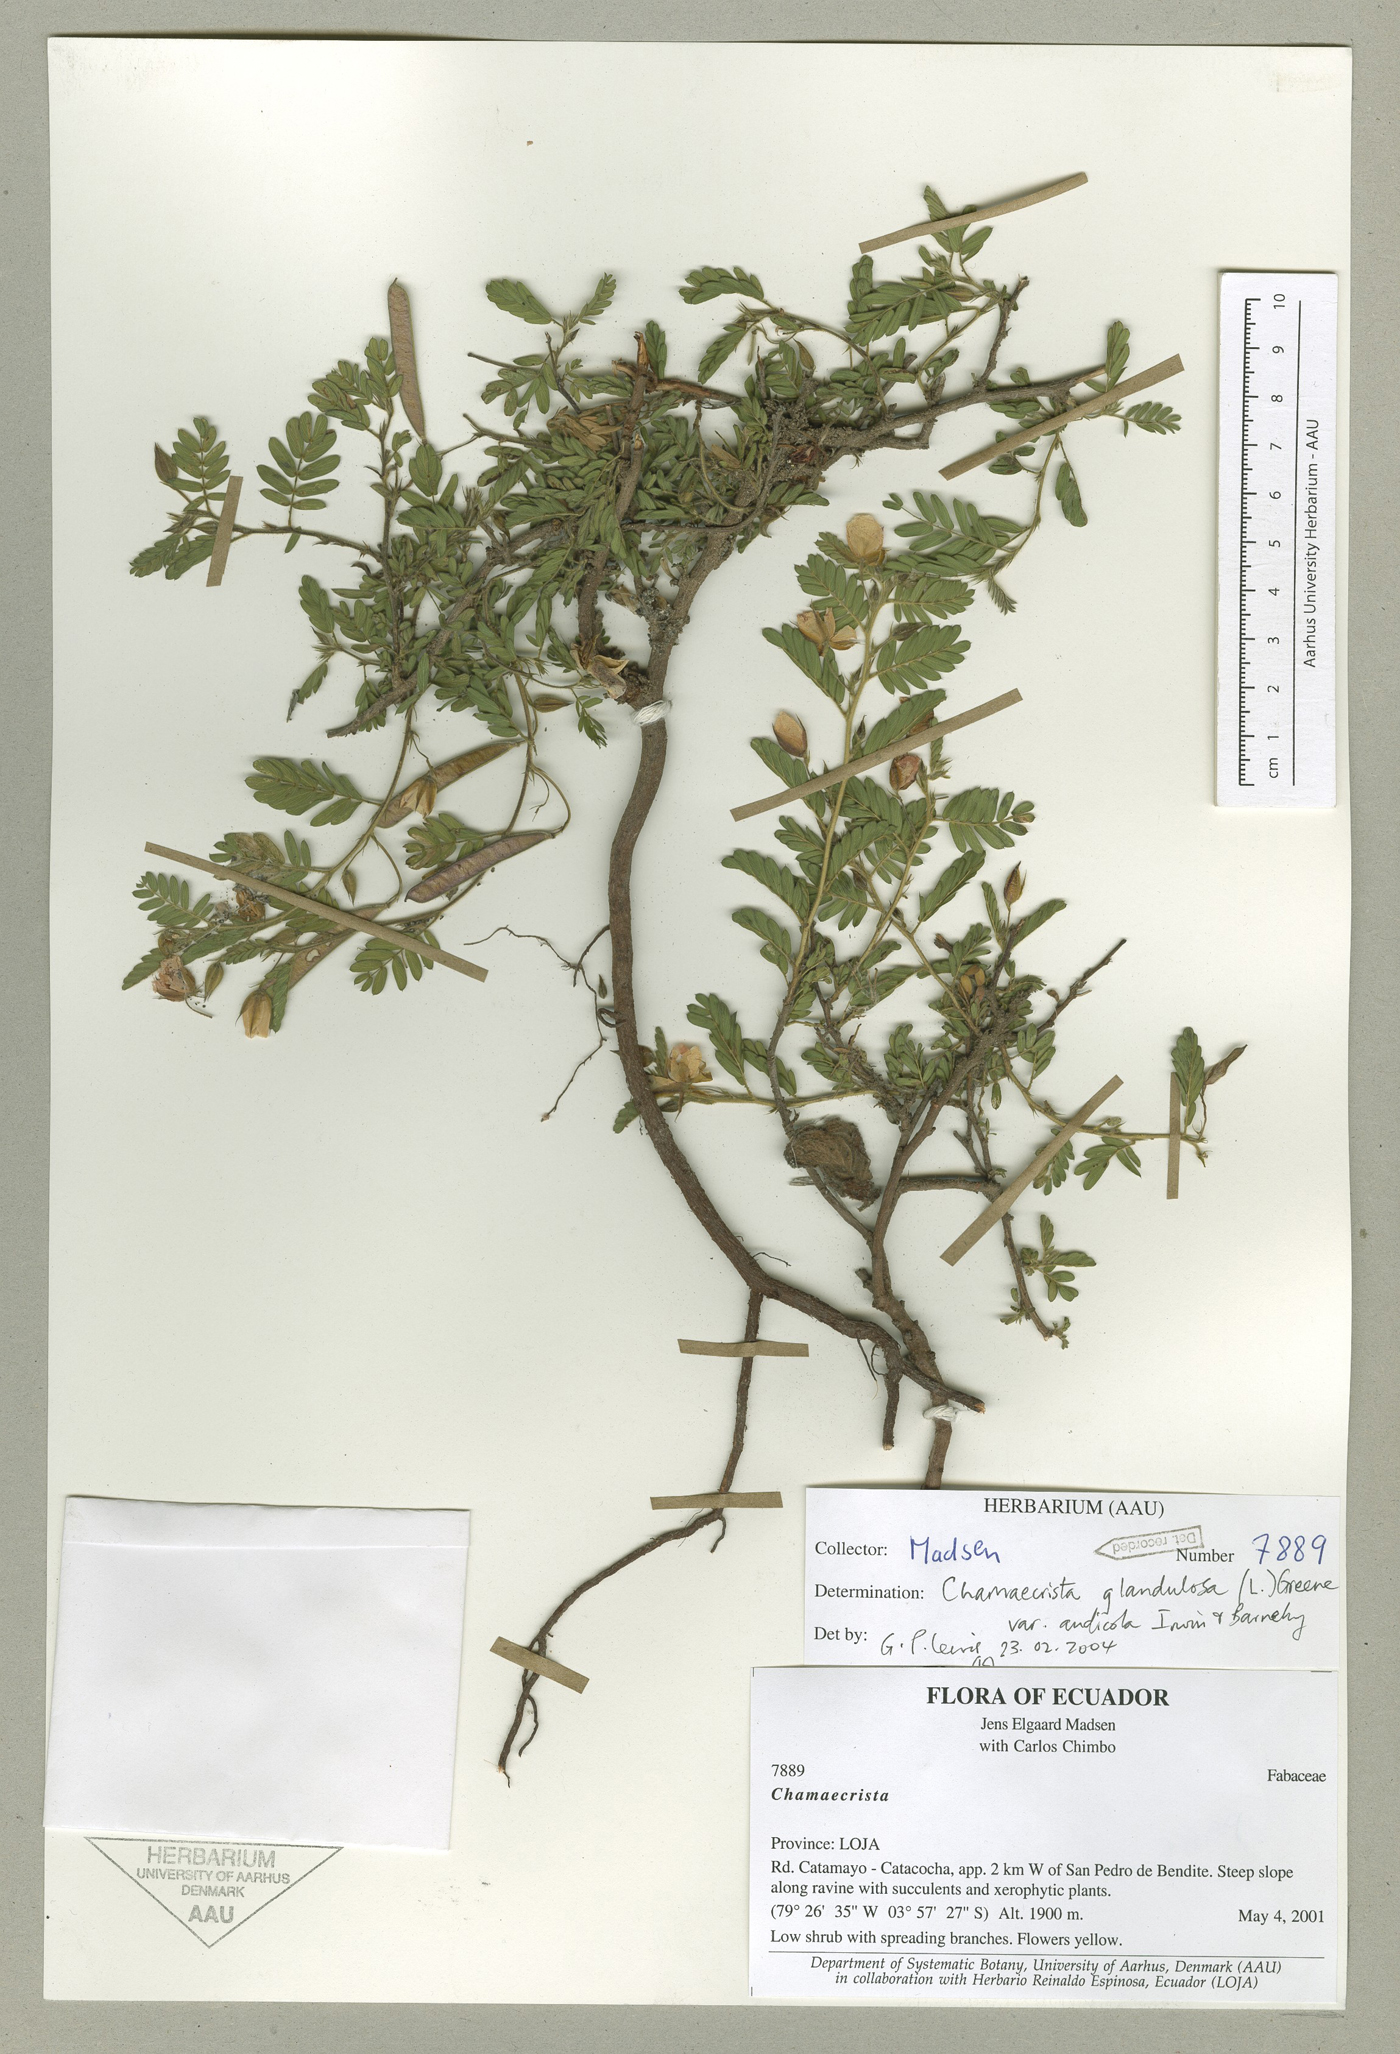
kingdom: Plantae
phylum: Tracheophyta
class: Magnoliopsida
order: Fabales
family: Fabaceae
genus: Chamaecrista
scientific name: Chamaecrista glandulosa
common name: Wild peas
